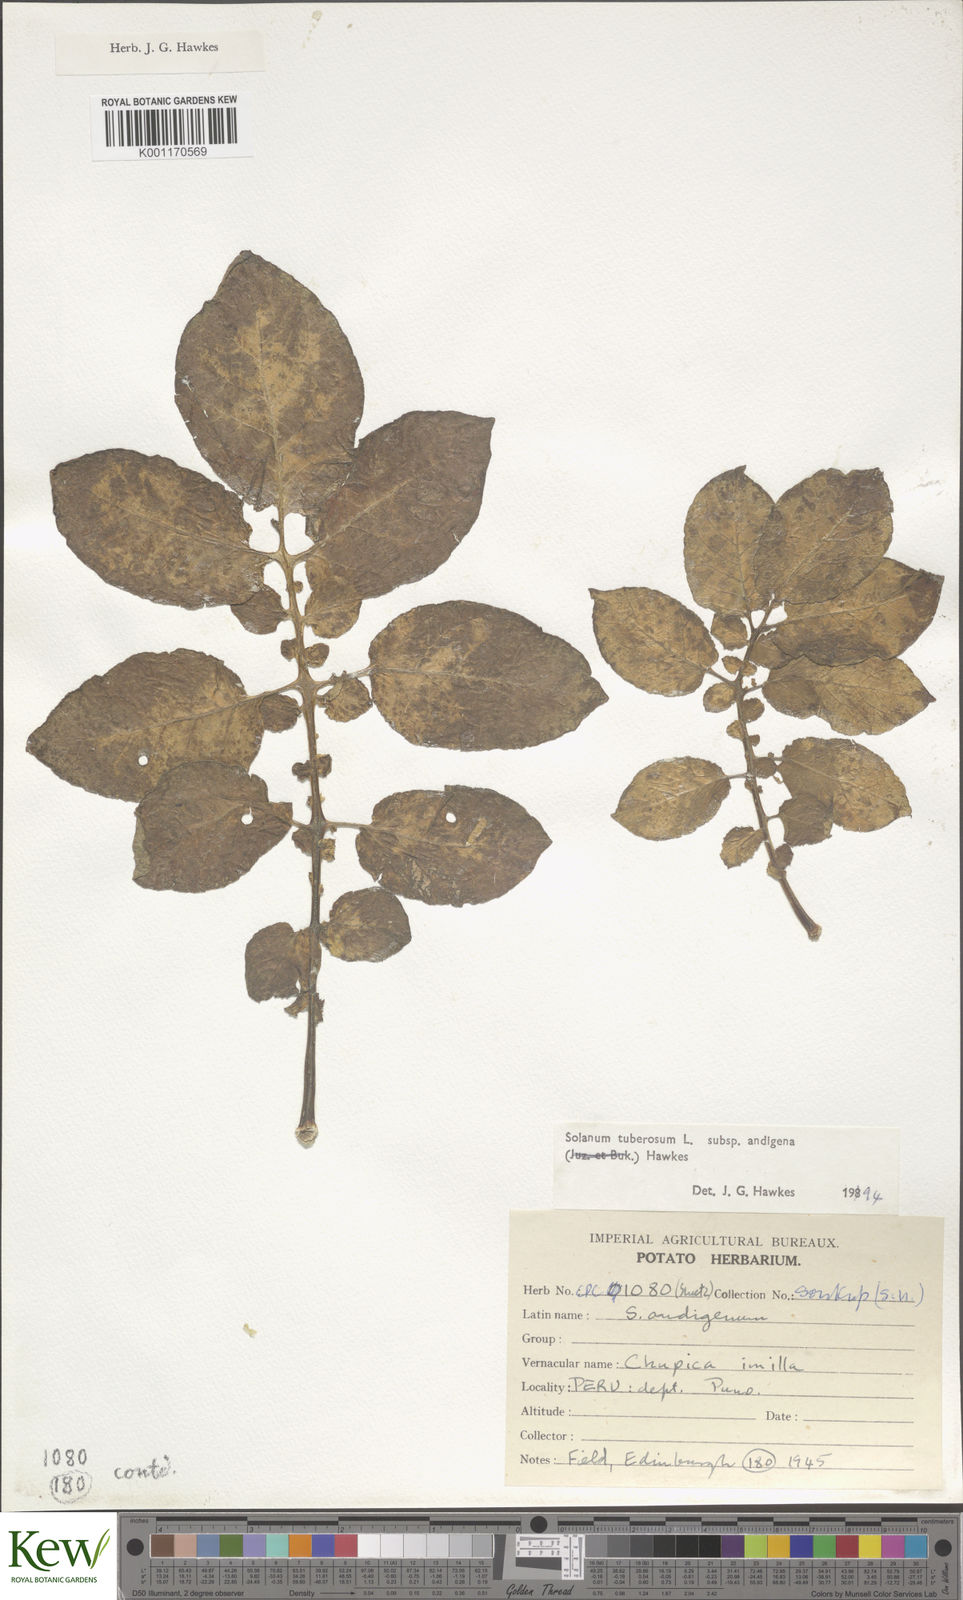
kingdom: Plantae
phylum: Tracheophyta
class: Magnoliopsida
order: Solanales
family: Solanaceae
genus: Solanum
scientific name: Solanum tuberosum
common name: Potato
